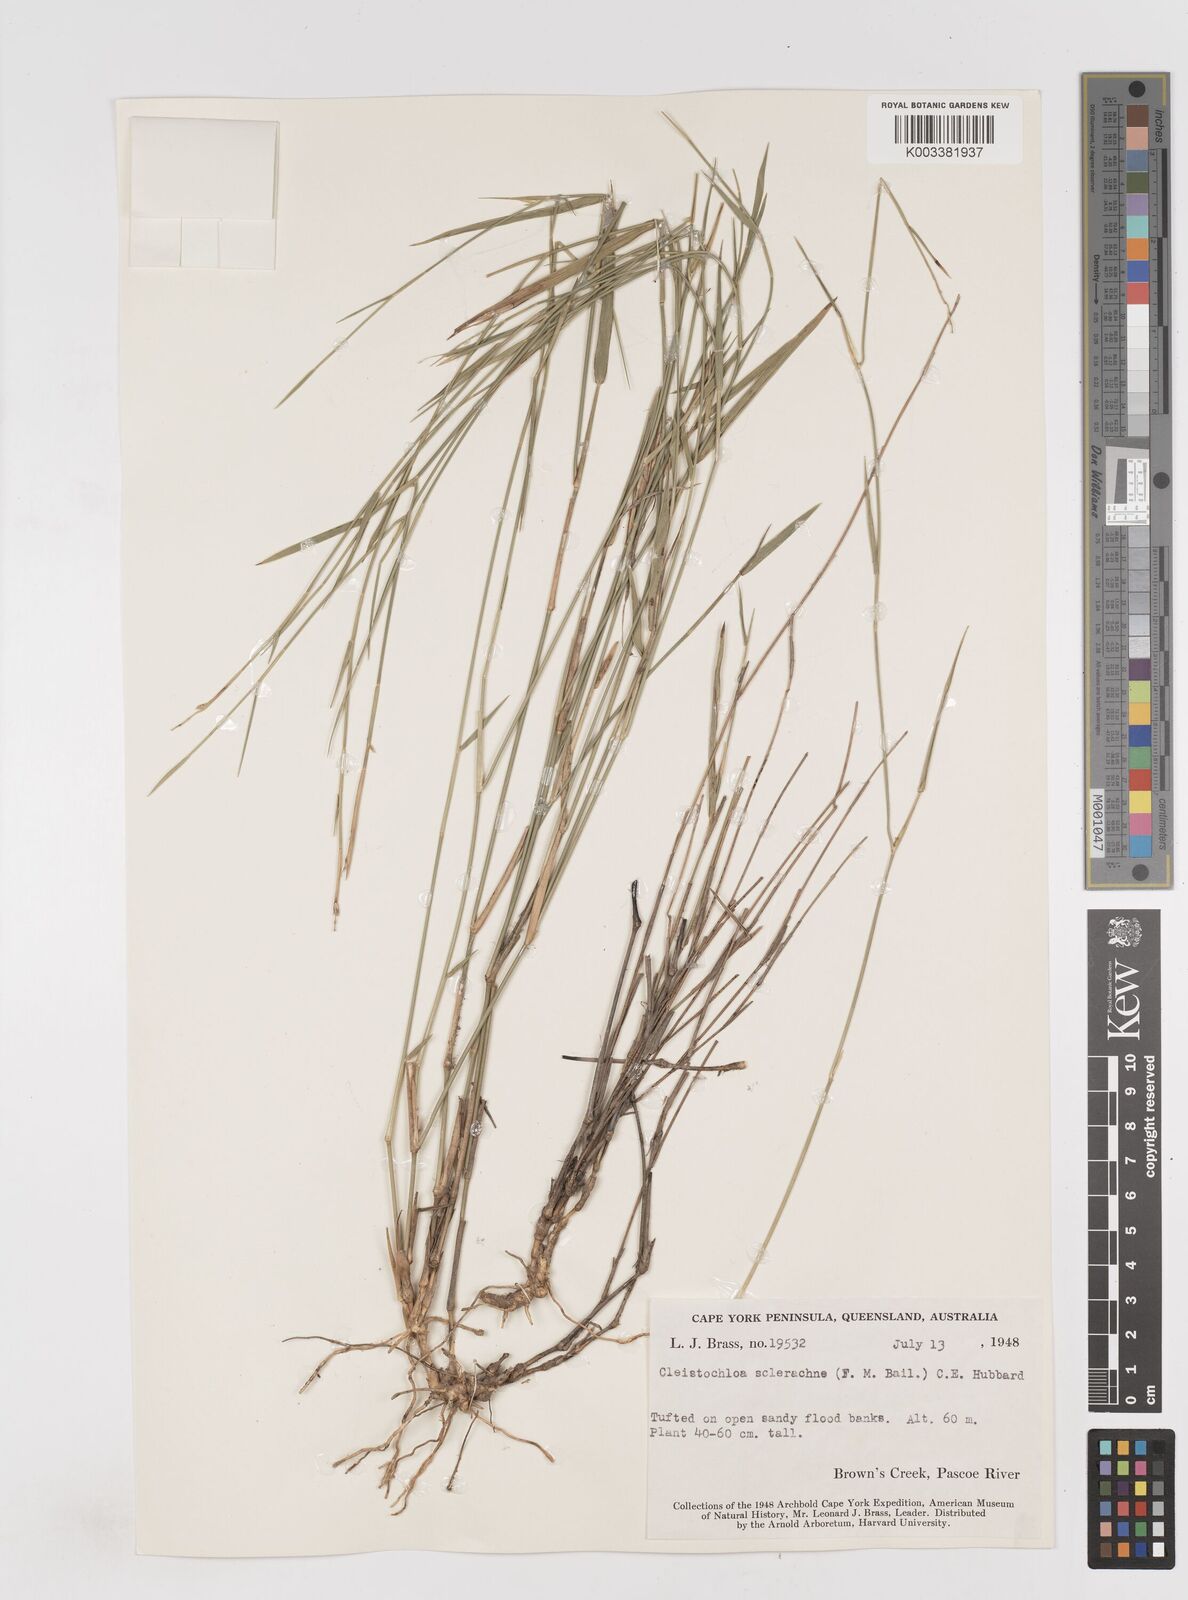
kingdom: Plantae
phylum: Tracheophyta
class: Liliopsida
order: Poales
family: Poaceae
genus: Cleistochloa
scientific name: Cleistochloa sclerachne
